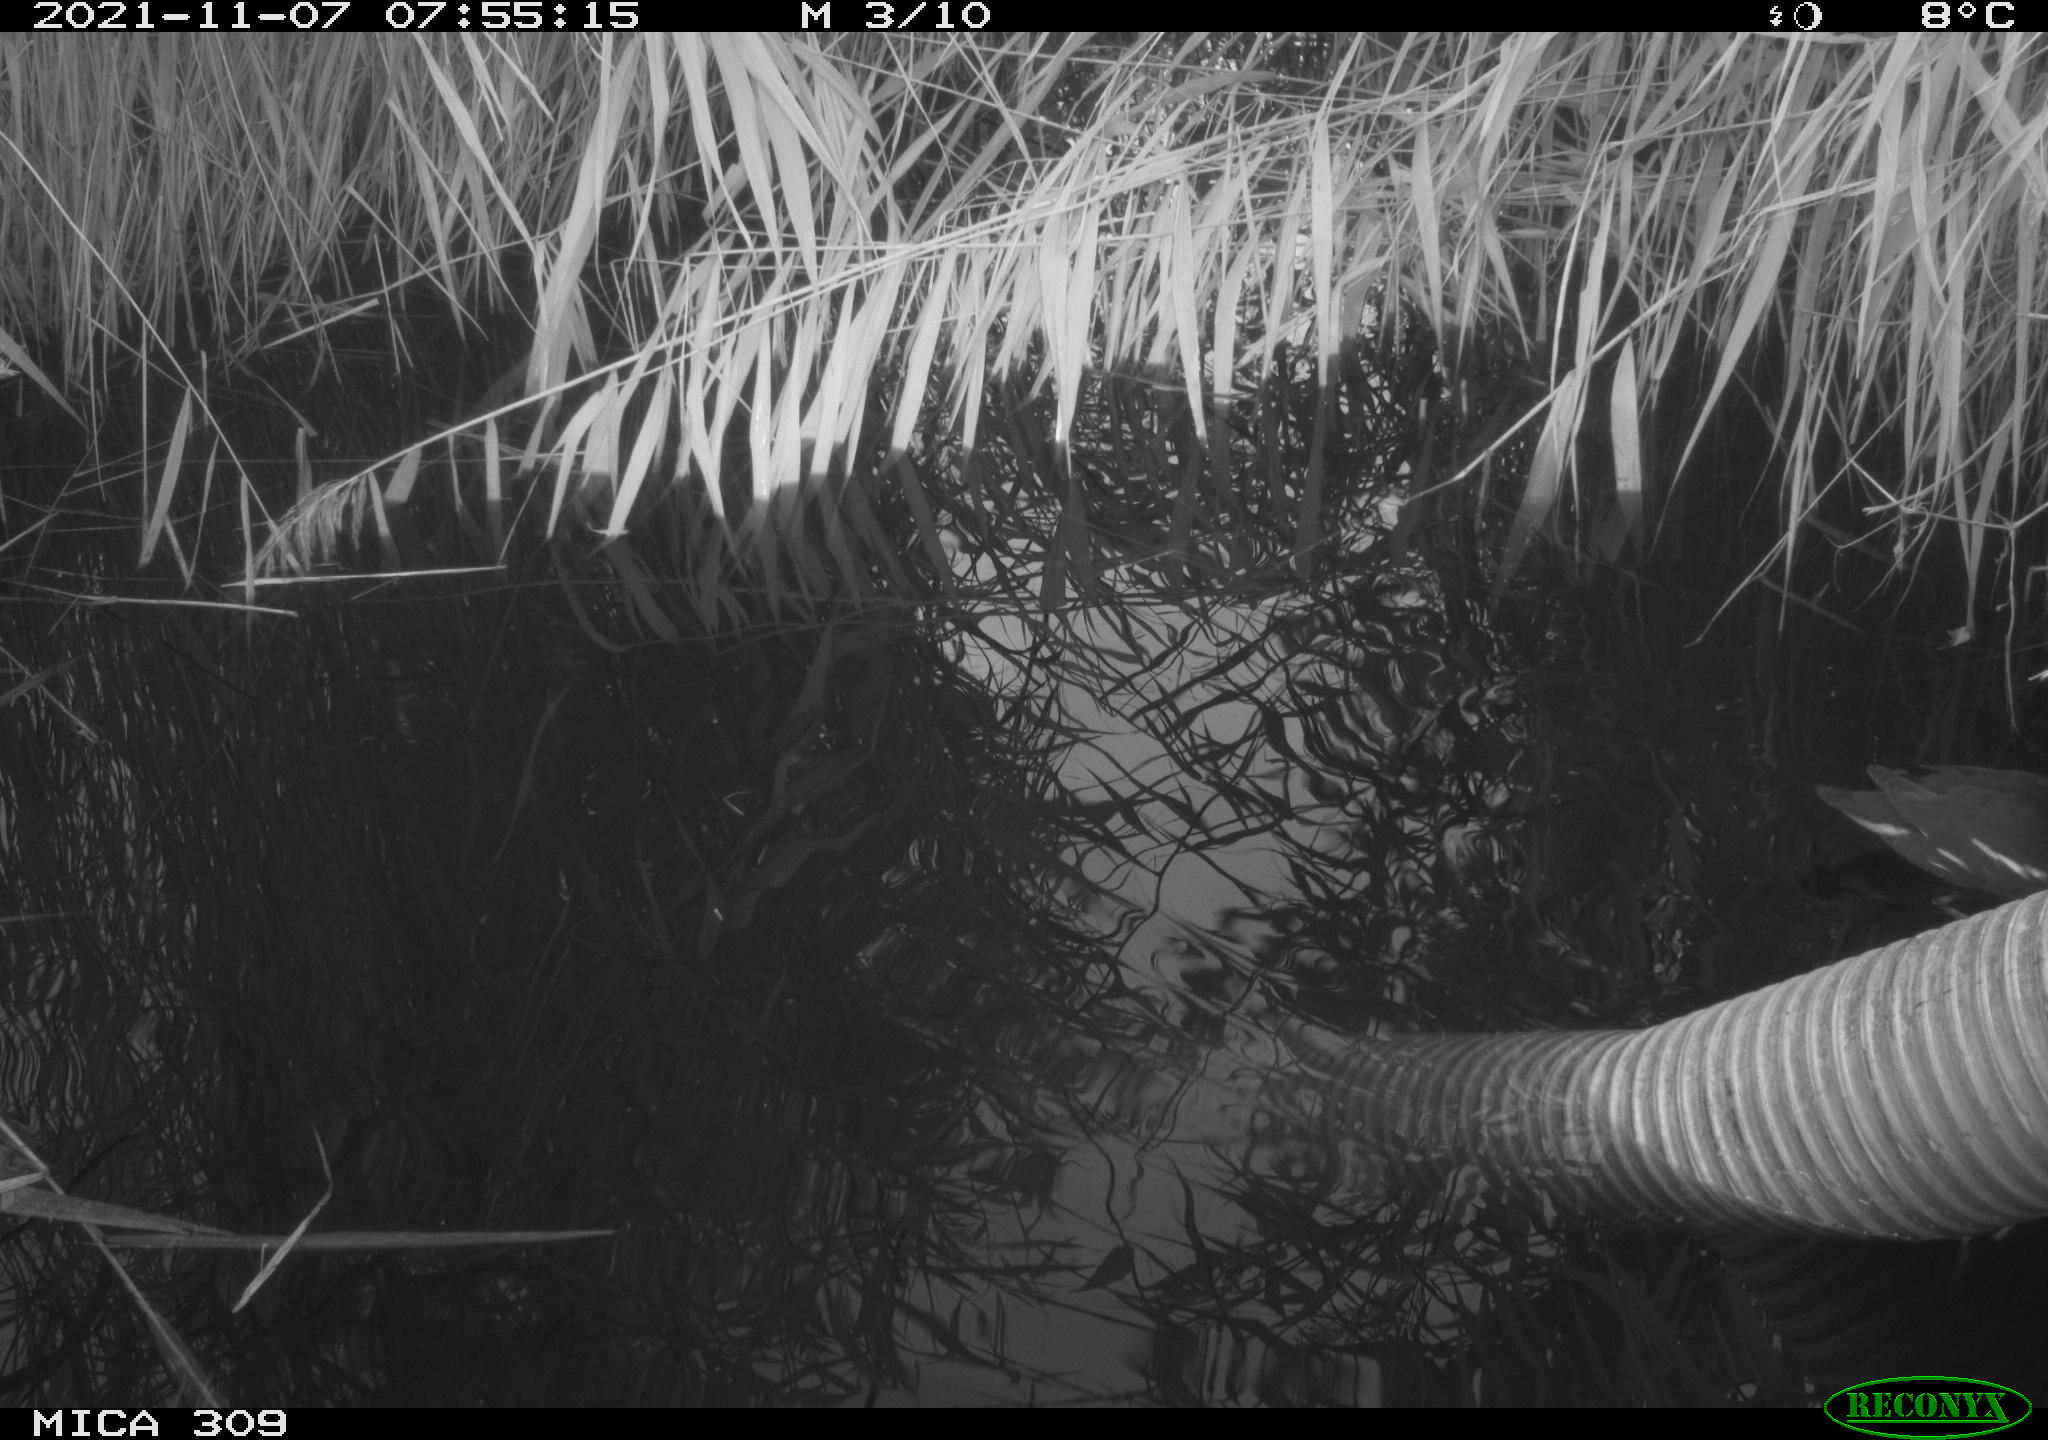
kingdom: Animalia
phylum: Chordata
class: Aves
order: Gruiformes
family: Rallidae
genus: Gallinula
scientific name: Gallinula chloropus
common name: Common moorhen
